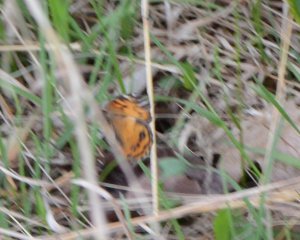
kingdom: Animalia
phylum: Arthropoda
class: Insecta
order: Lepidoptera
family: Nymphalidae
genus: Vanessa
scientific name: Vanessa virginiensis
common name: American Lady
